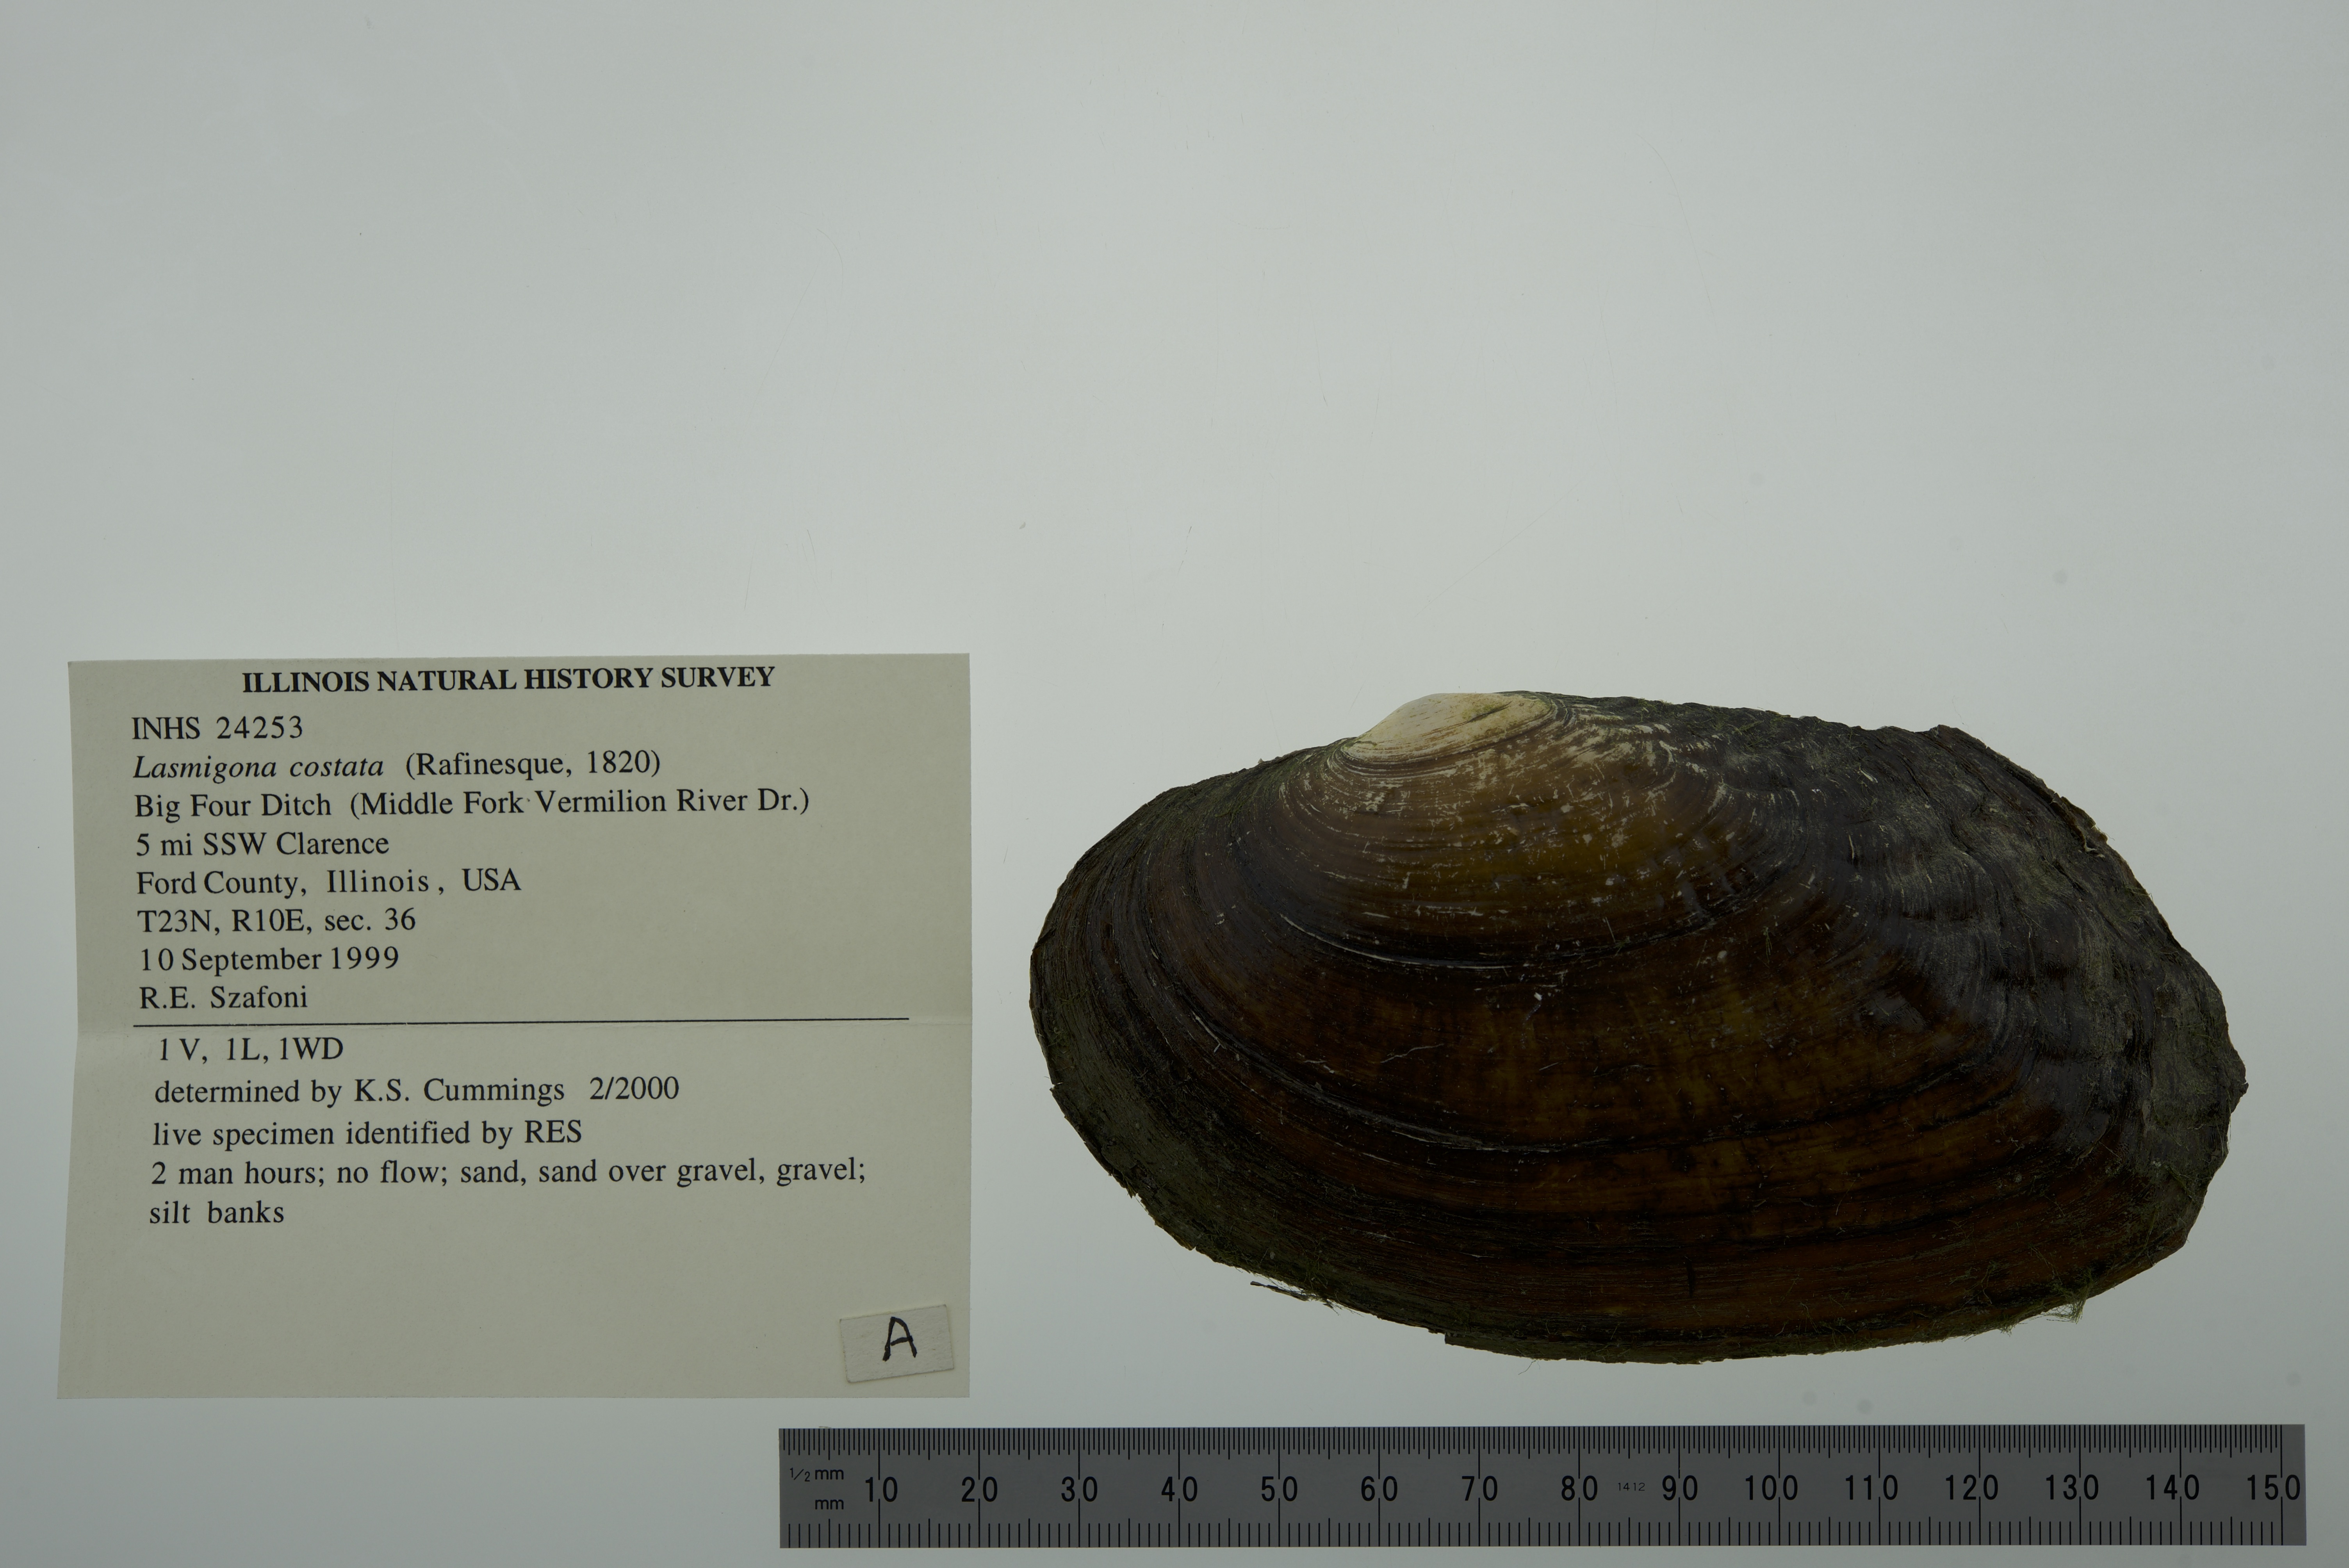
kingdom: Animalia
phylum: Mollusca
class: Bivalvia
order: Unionida
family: Unionidae
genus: Lasmigona
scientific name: Lasmigona costata
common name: Flutedshell
